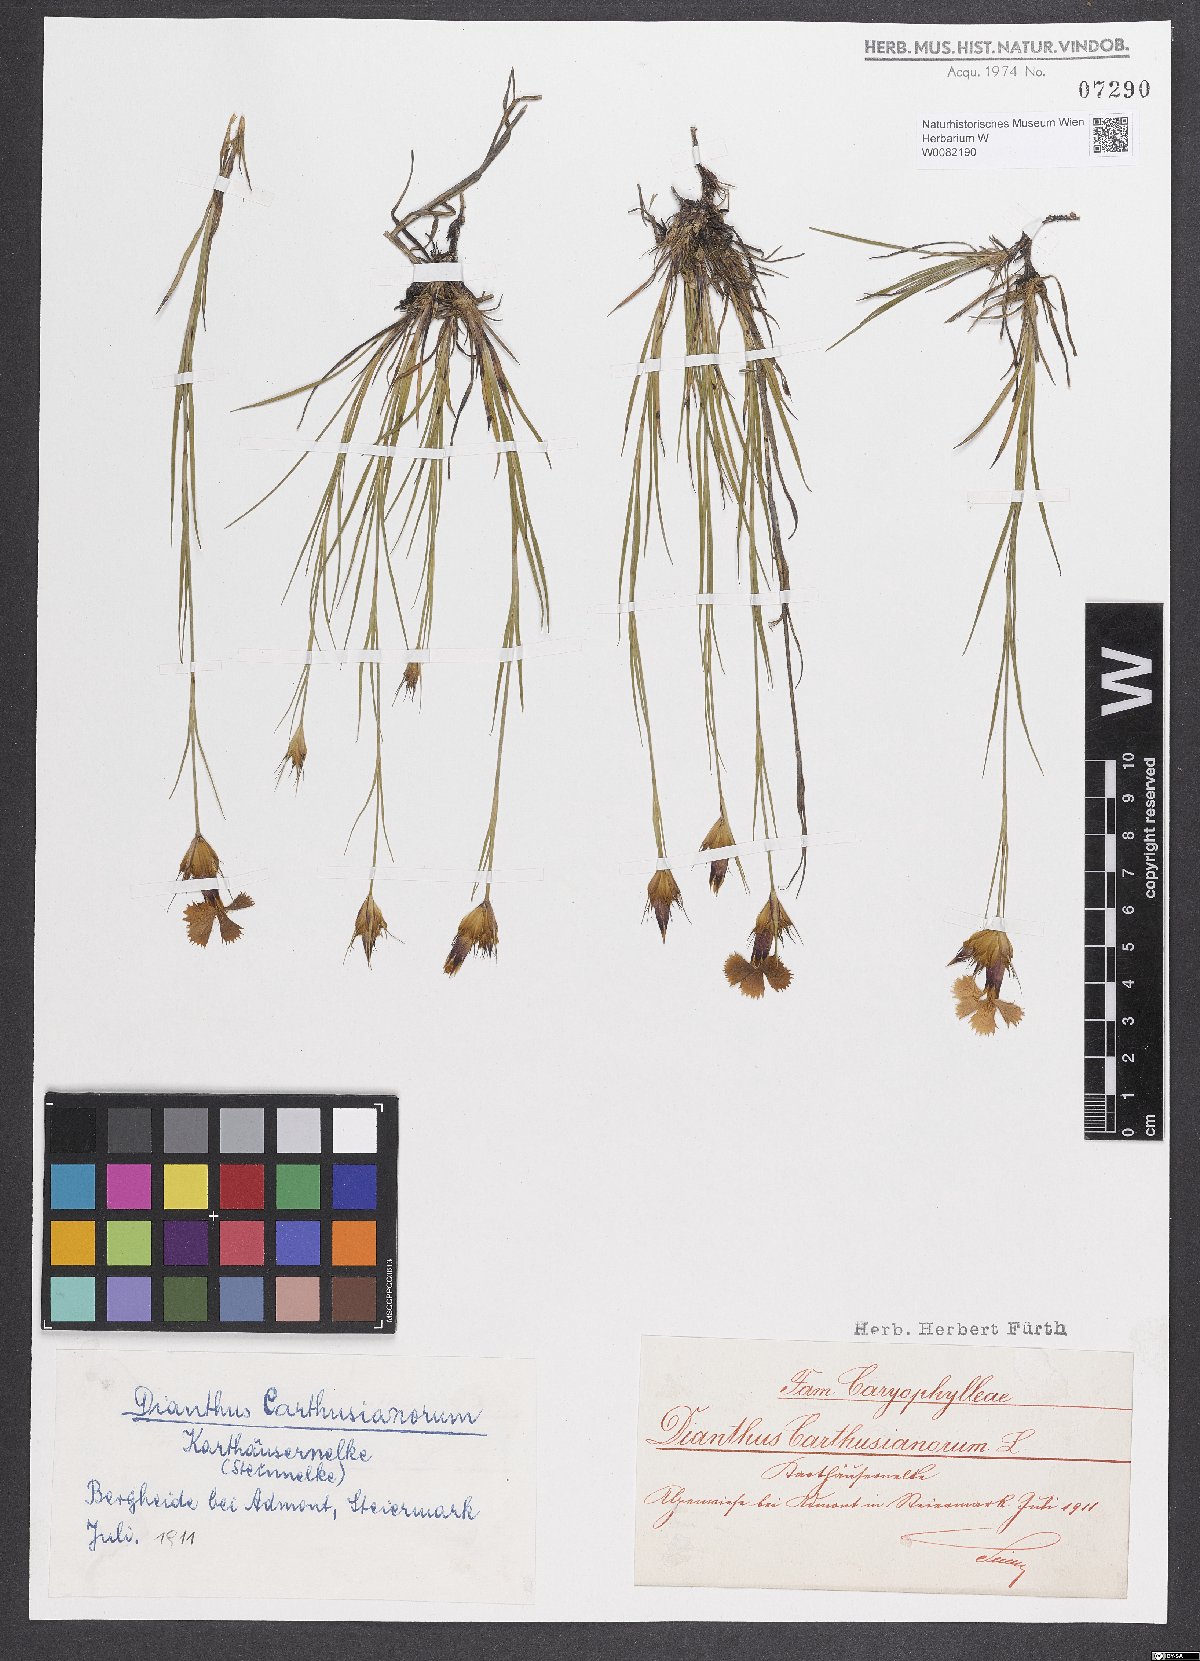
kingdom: Plantae
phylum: Tracheophyta
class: Magnoliopsida
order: Caryophyllales
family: Caryophyllaceae
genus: Dianthus
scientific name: Dianthus carthusianorum
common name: Carthusian pink
